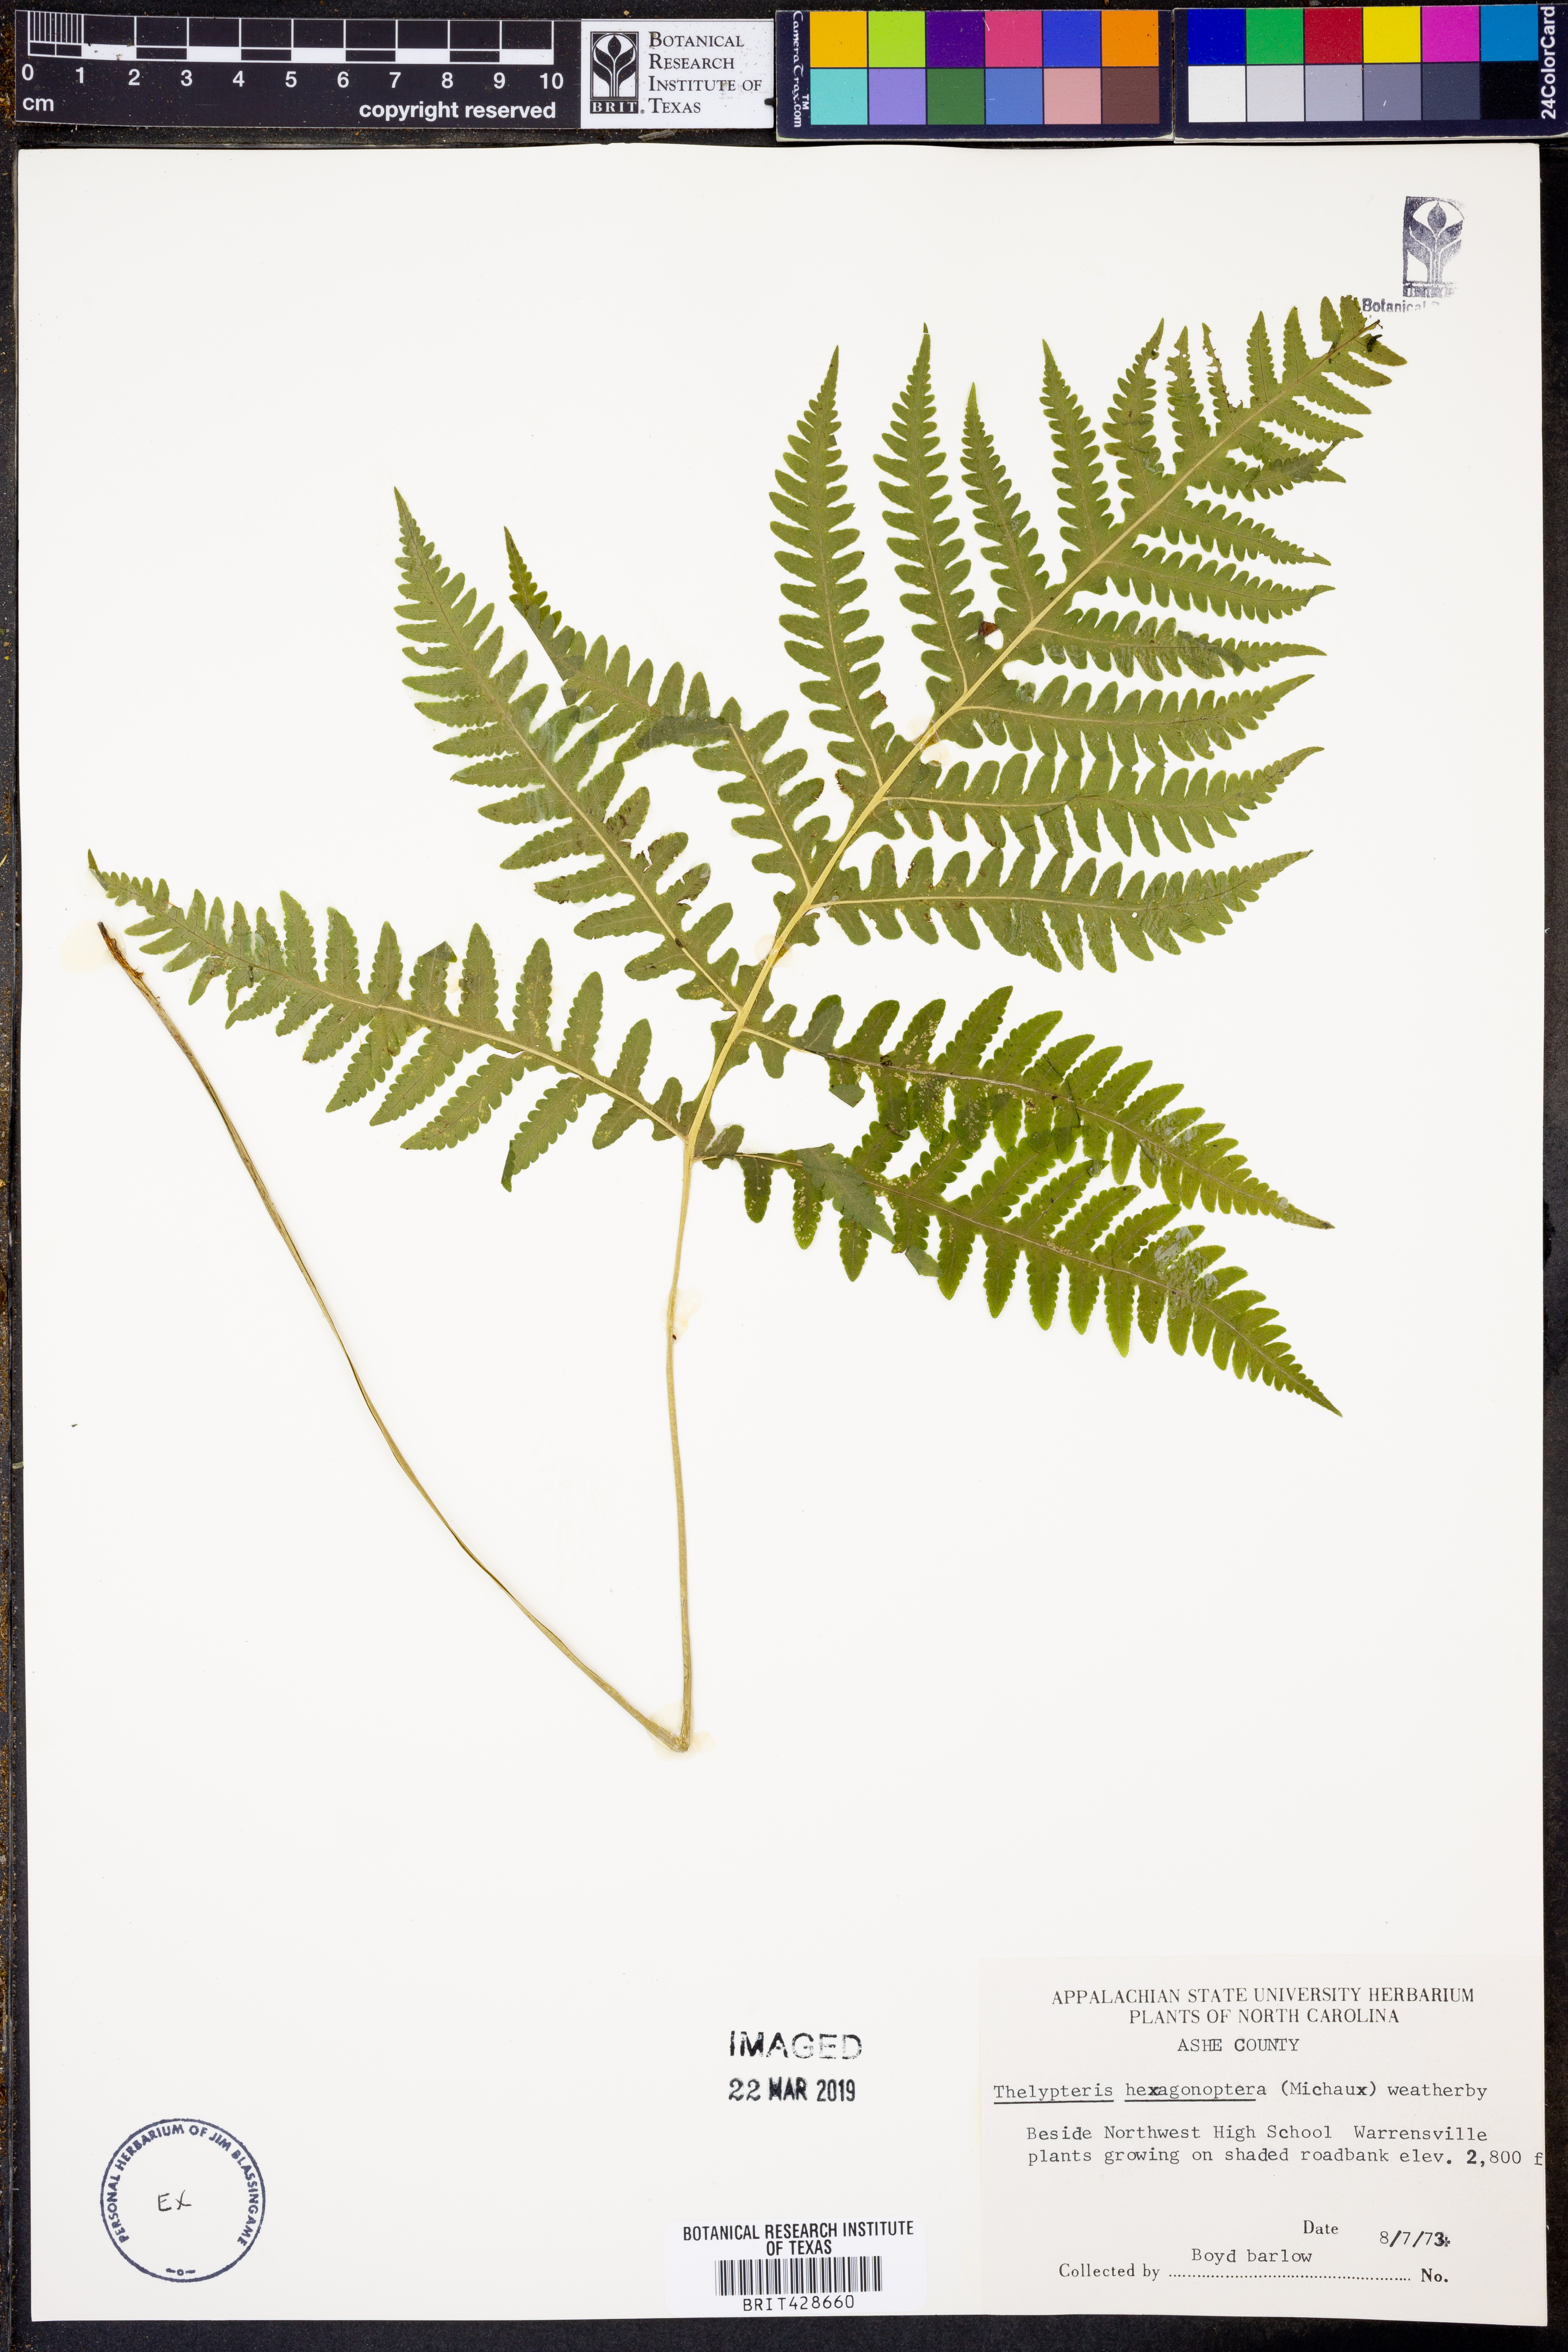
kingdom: Plantae
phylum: Tracheophyta
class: Polypodiopsida
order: Polypodiales
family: Thelypteridaceae
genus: Phegopteris
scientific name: Phegopteris hexagonoptera
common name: Broad beech fern
